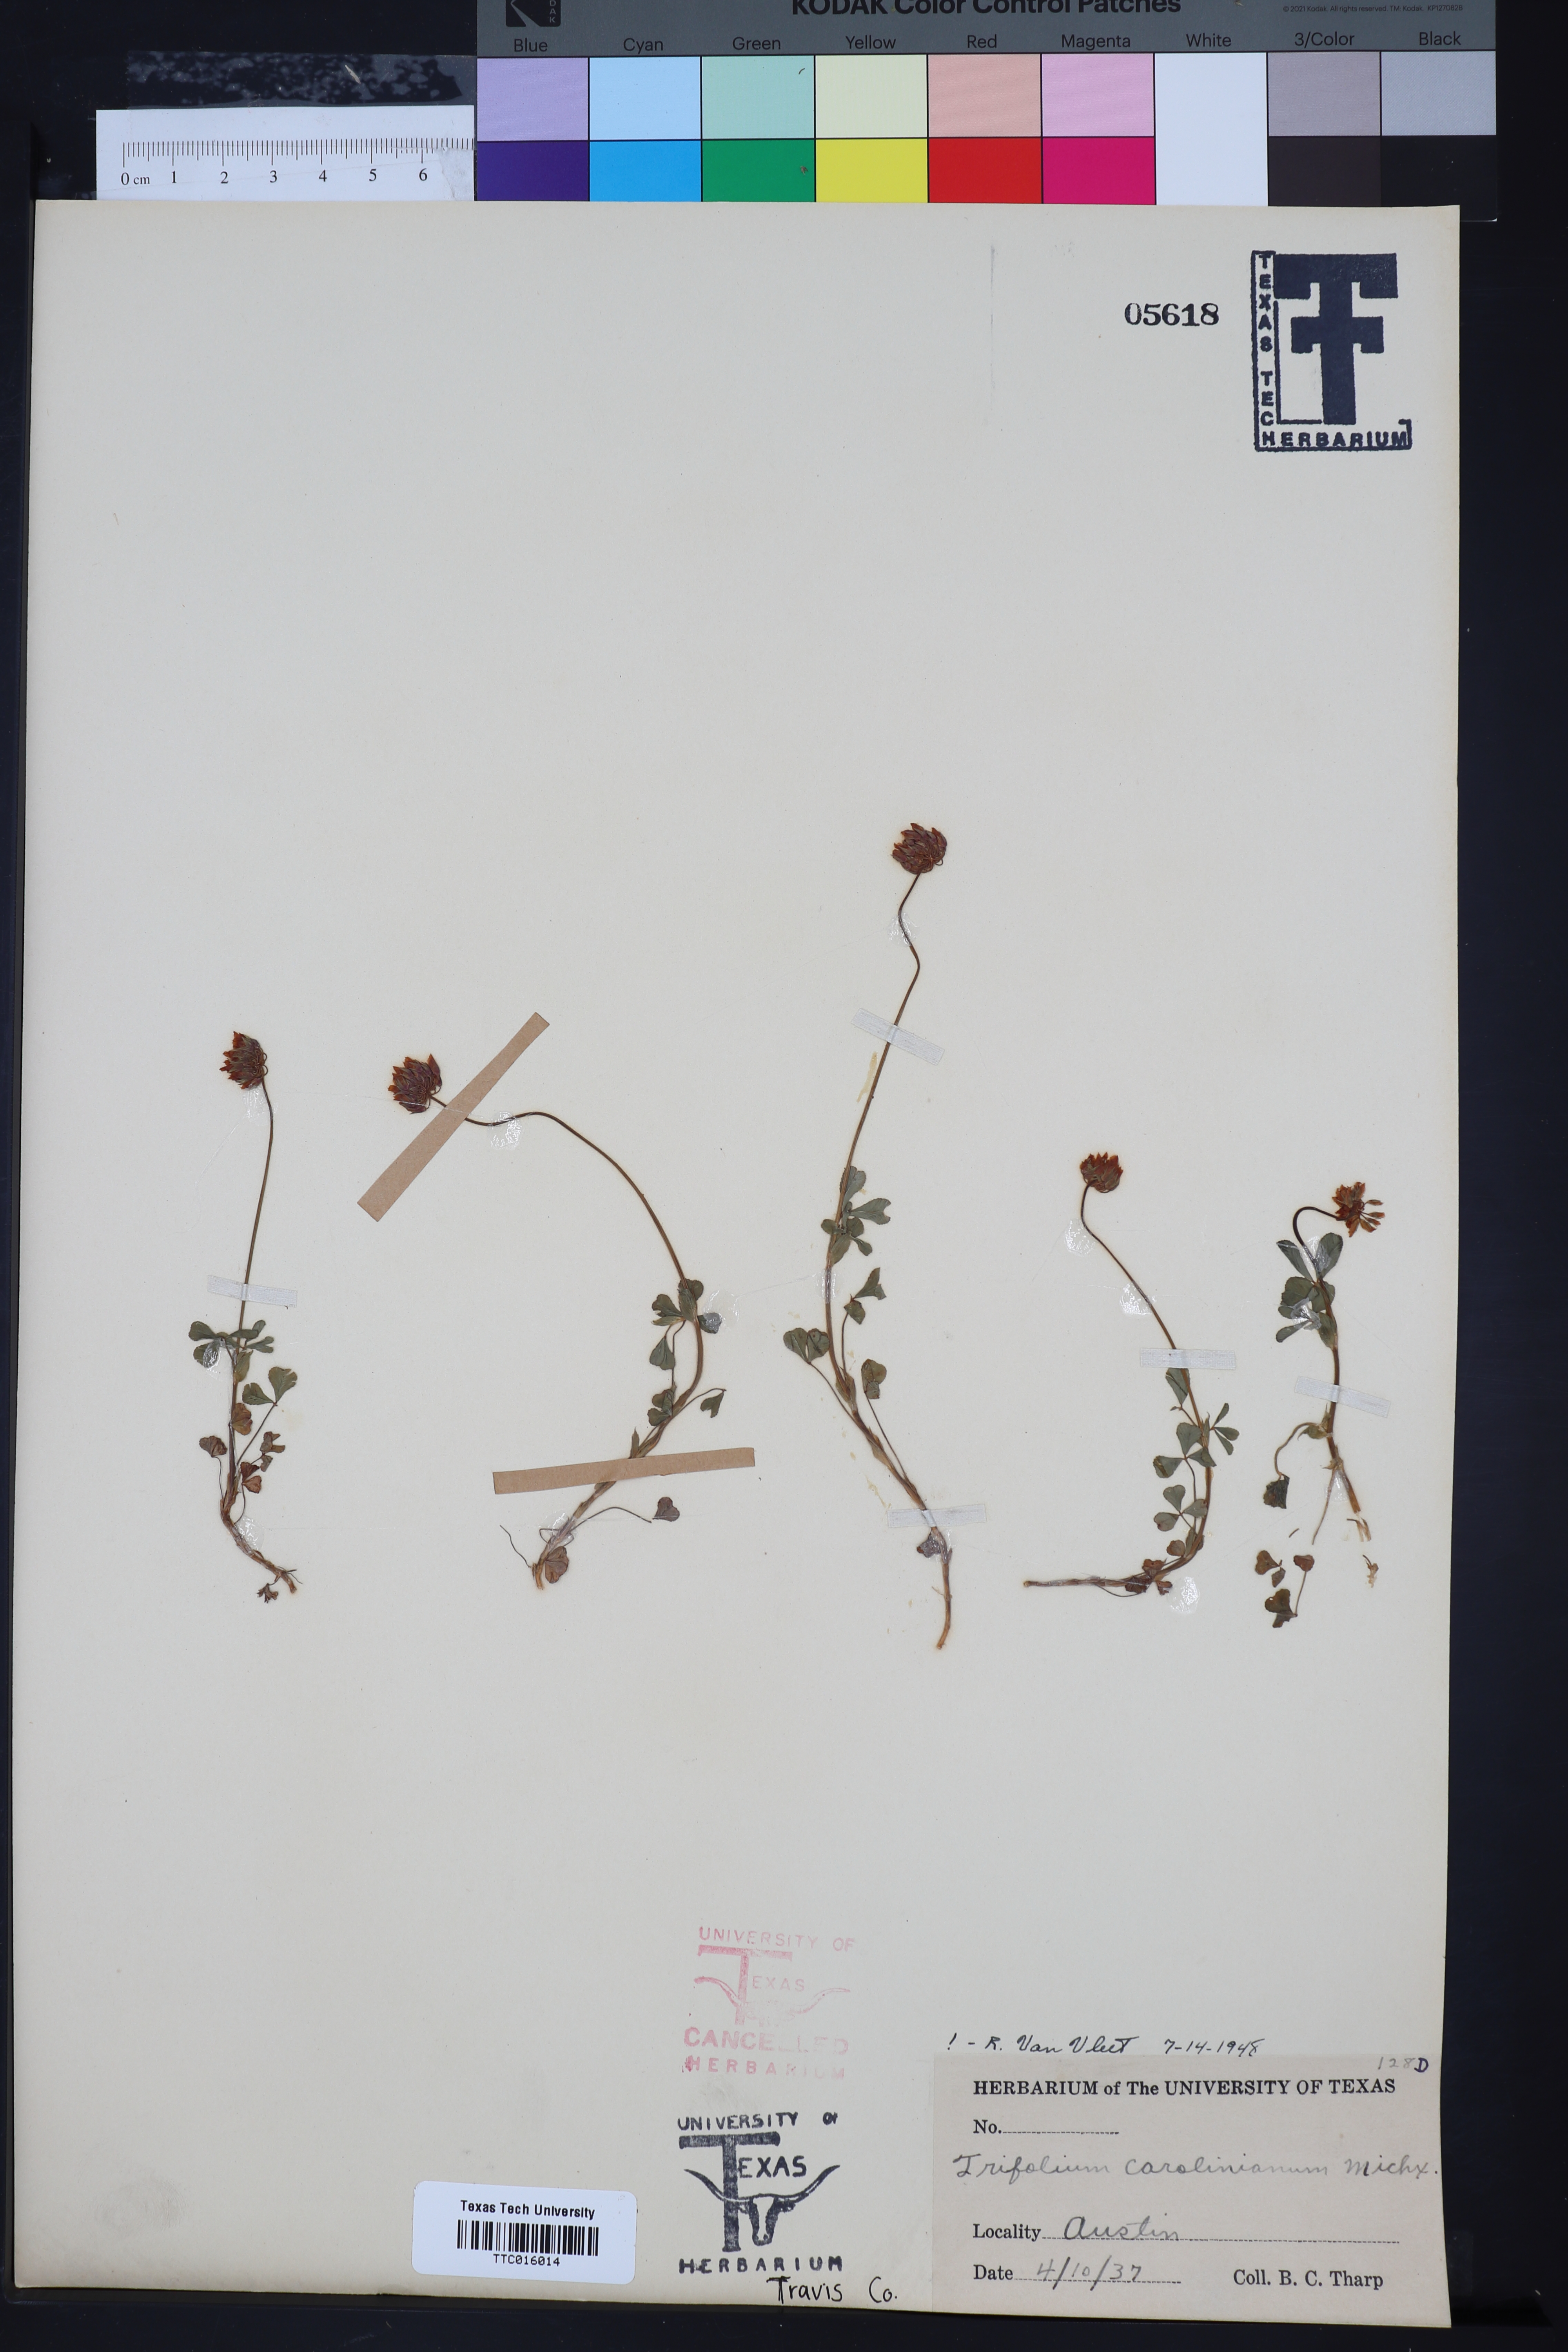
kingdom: Plantae
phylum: Tracheophyta
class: Magnoliopsida
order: Fabales
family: Fabaceae
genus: Trifolium
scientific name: Trifolium carolinianum
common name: Wild white clover
